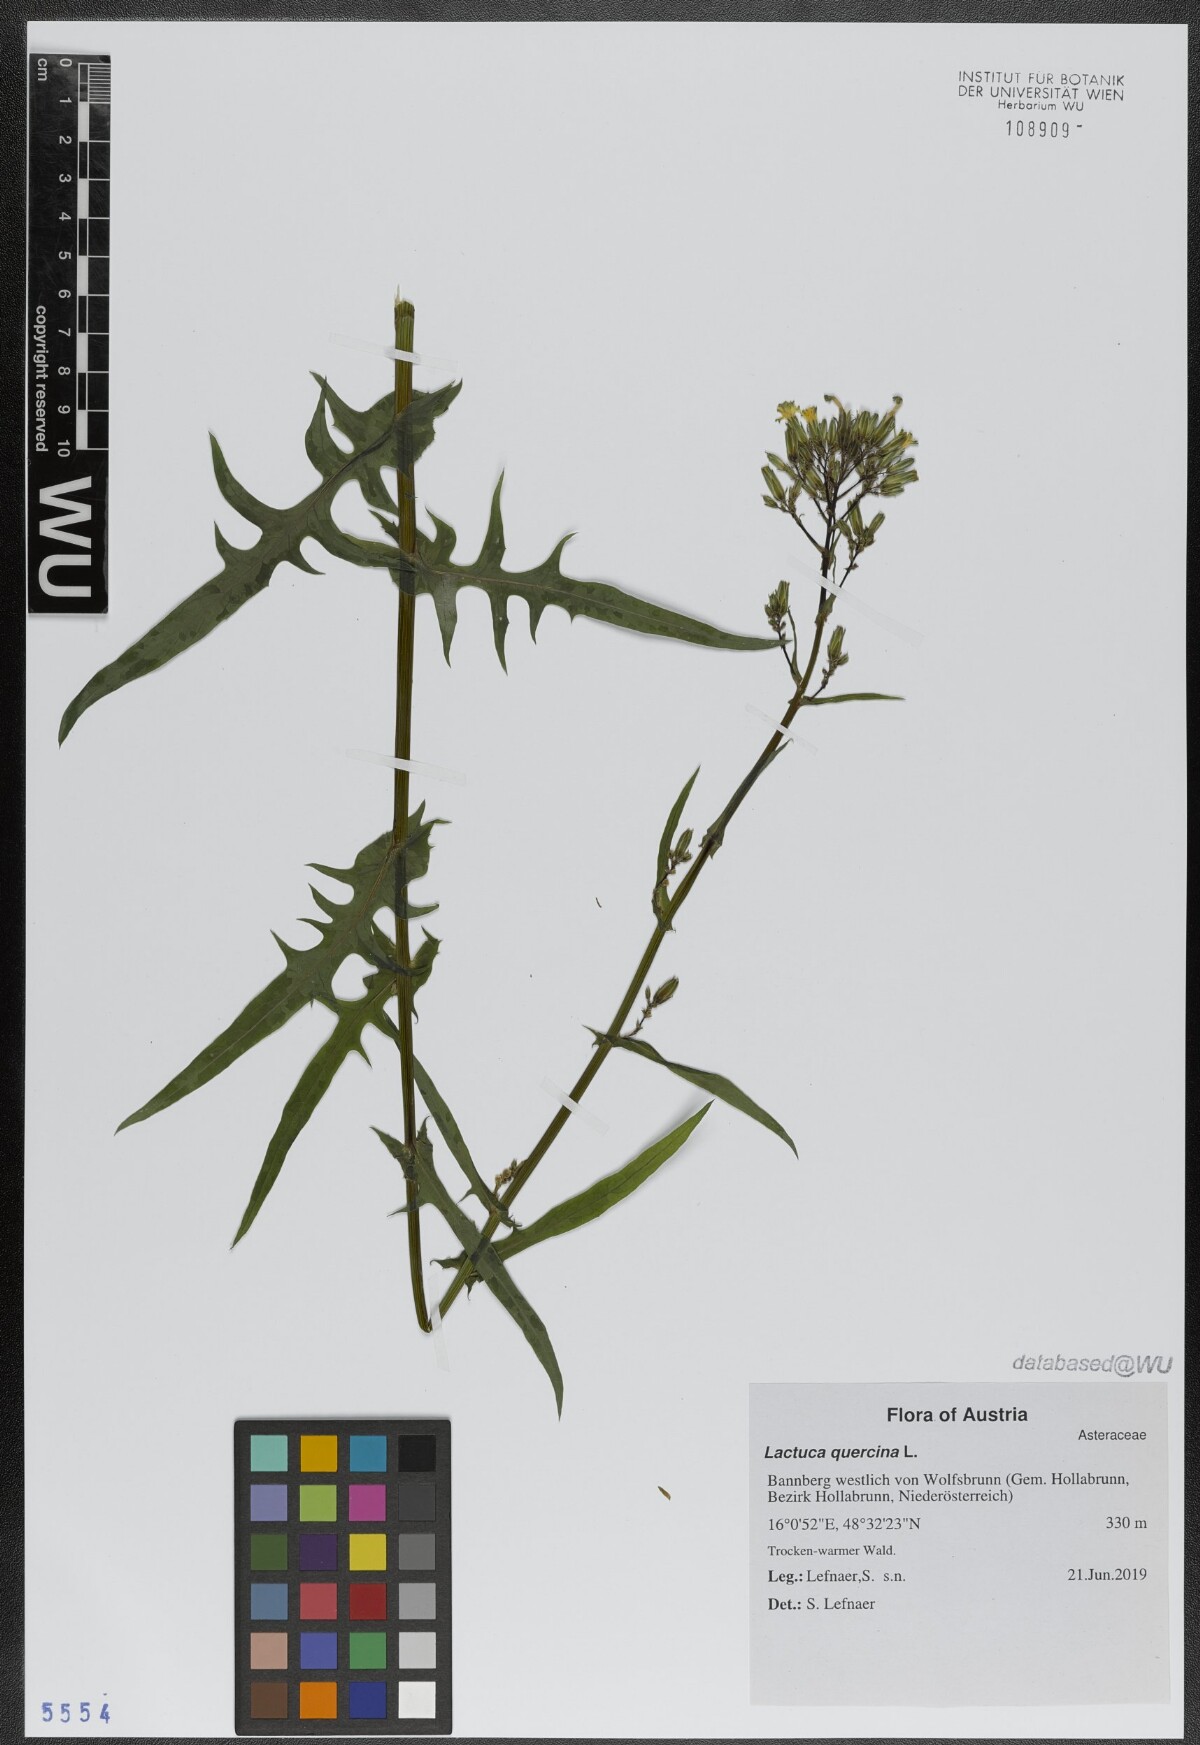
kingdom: Plantae
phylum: Tracheophyta
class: Magnoliopsida
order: Asterales
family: Asteraceae
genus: Lactuca
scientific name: Lactuca quercina
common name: Wild lettuce
